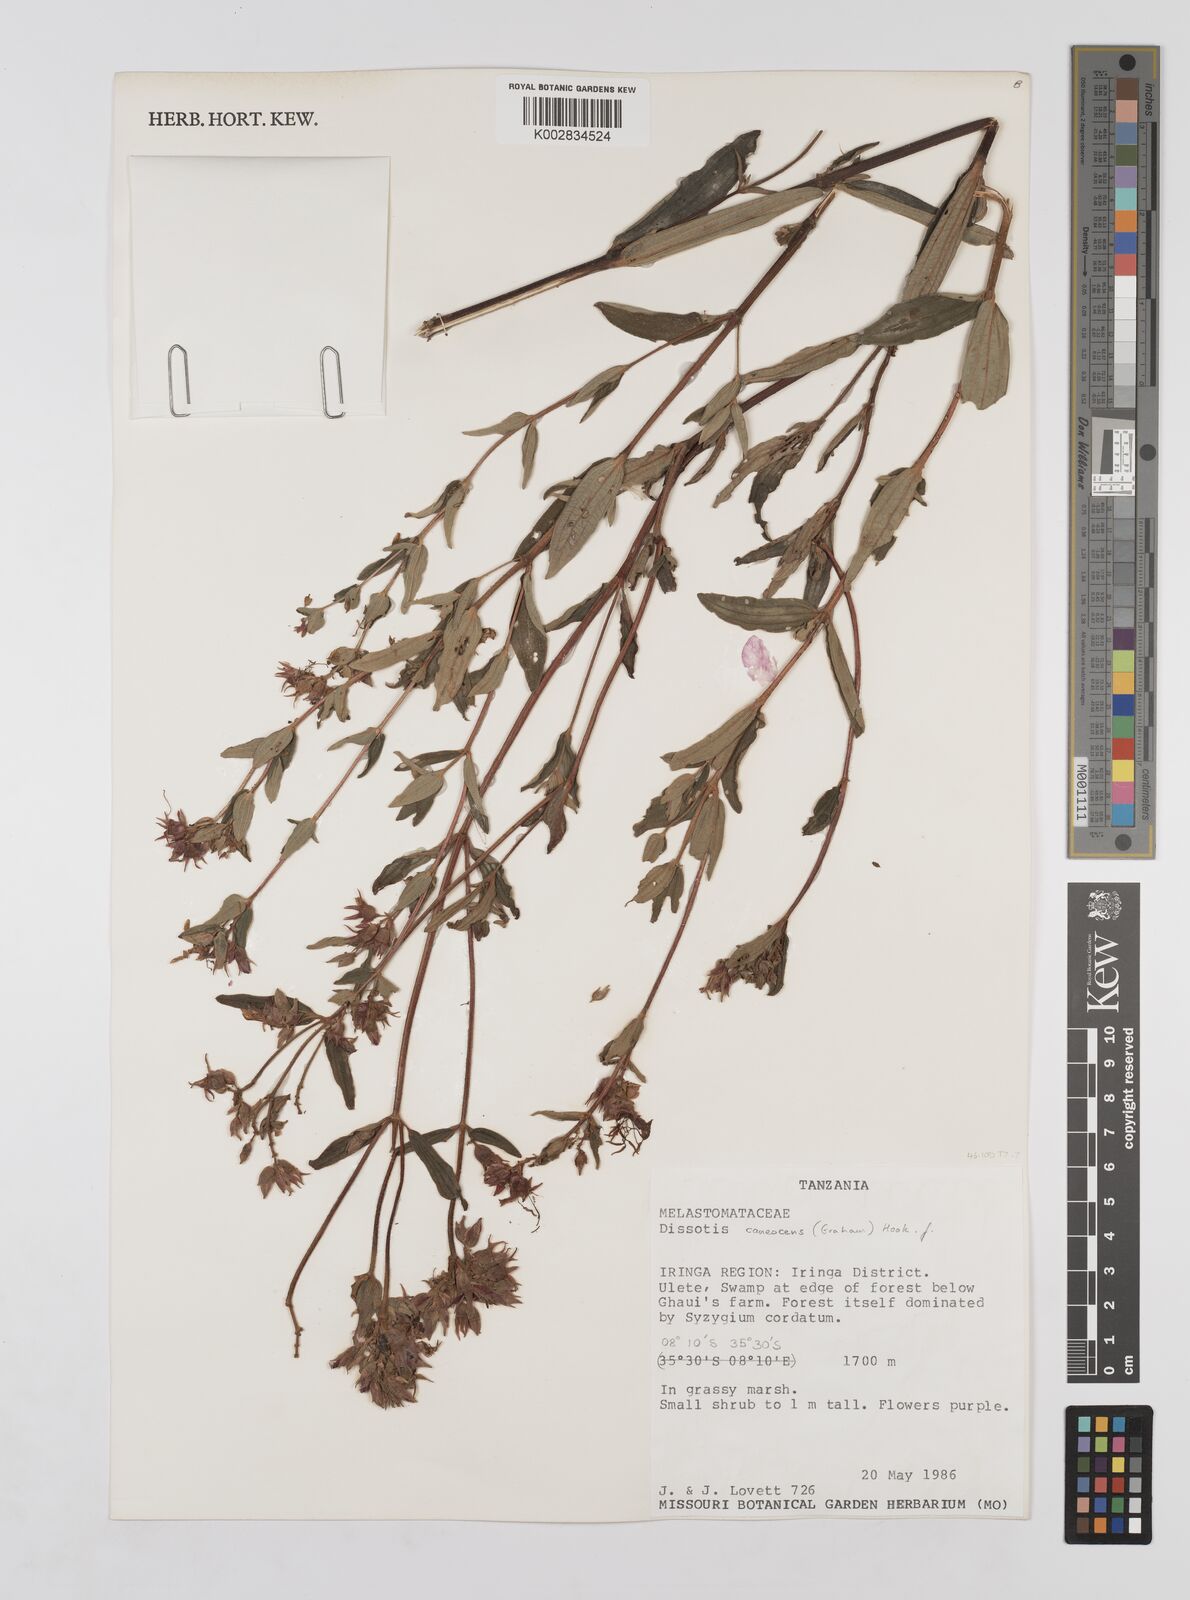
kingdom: Plantae
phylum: Tracheophyta
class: Magnoliopsida
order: Myrtales
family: Melastomataceae
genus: Argyrella
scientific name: Argyrella canescens
